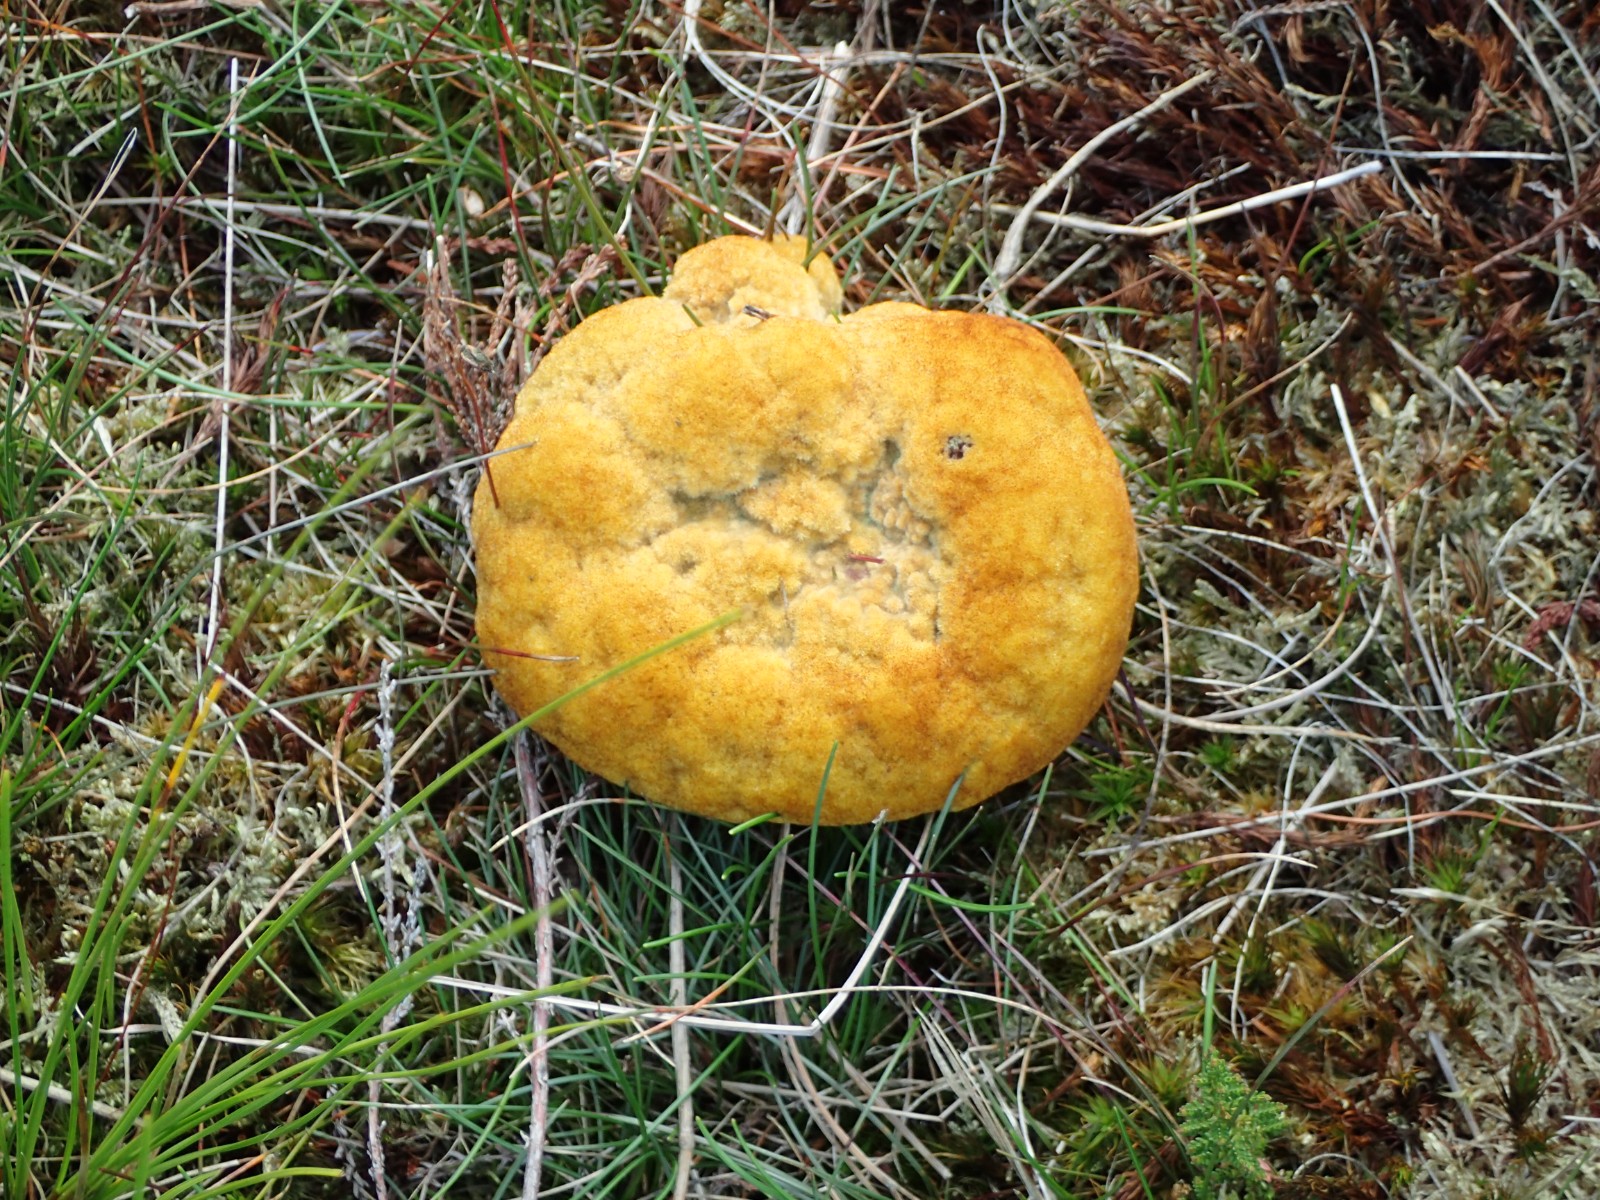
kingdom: Fungi
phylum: Basidiomycota
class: Agaricomycetes
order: Polyporales
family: Laetiporaceae
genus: Phaeolus
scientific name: Phaeolus schweinitzii
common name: brunporesvamp
